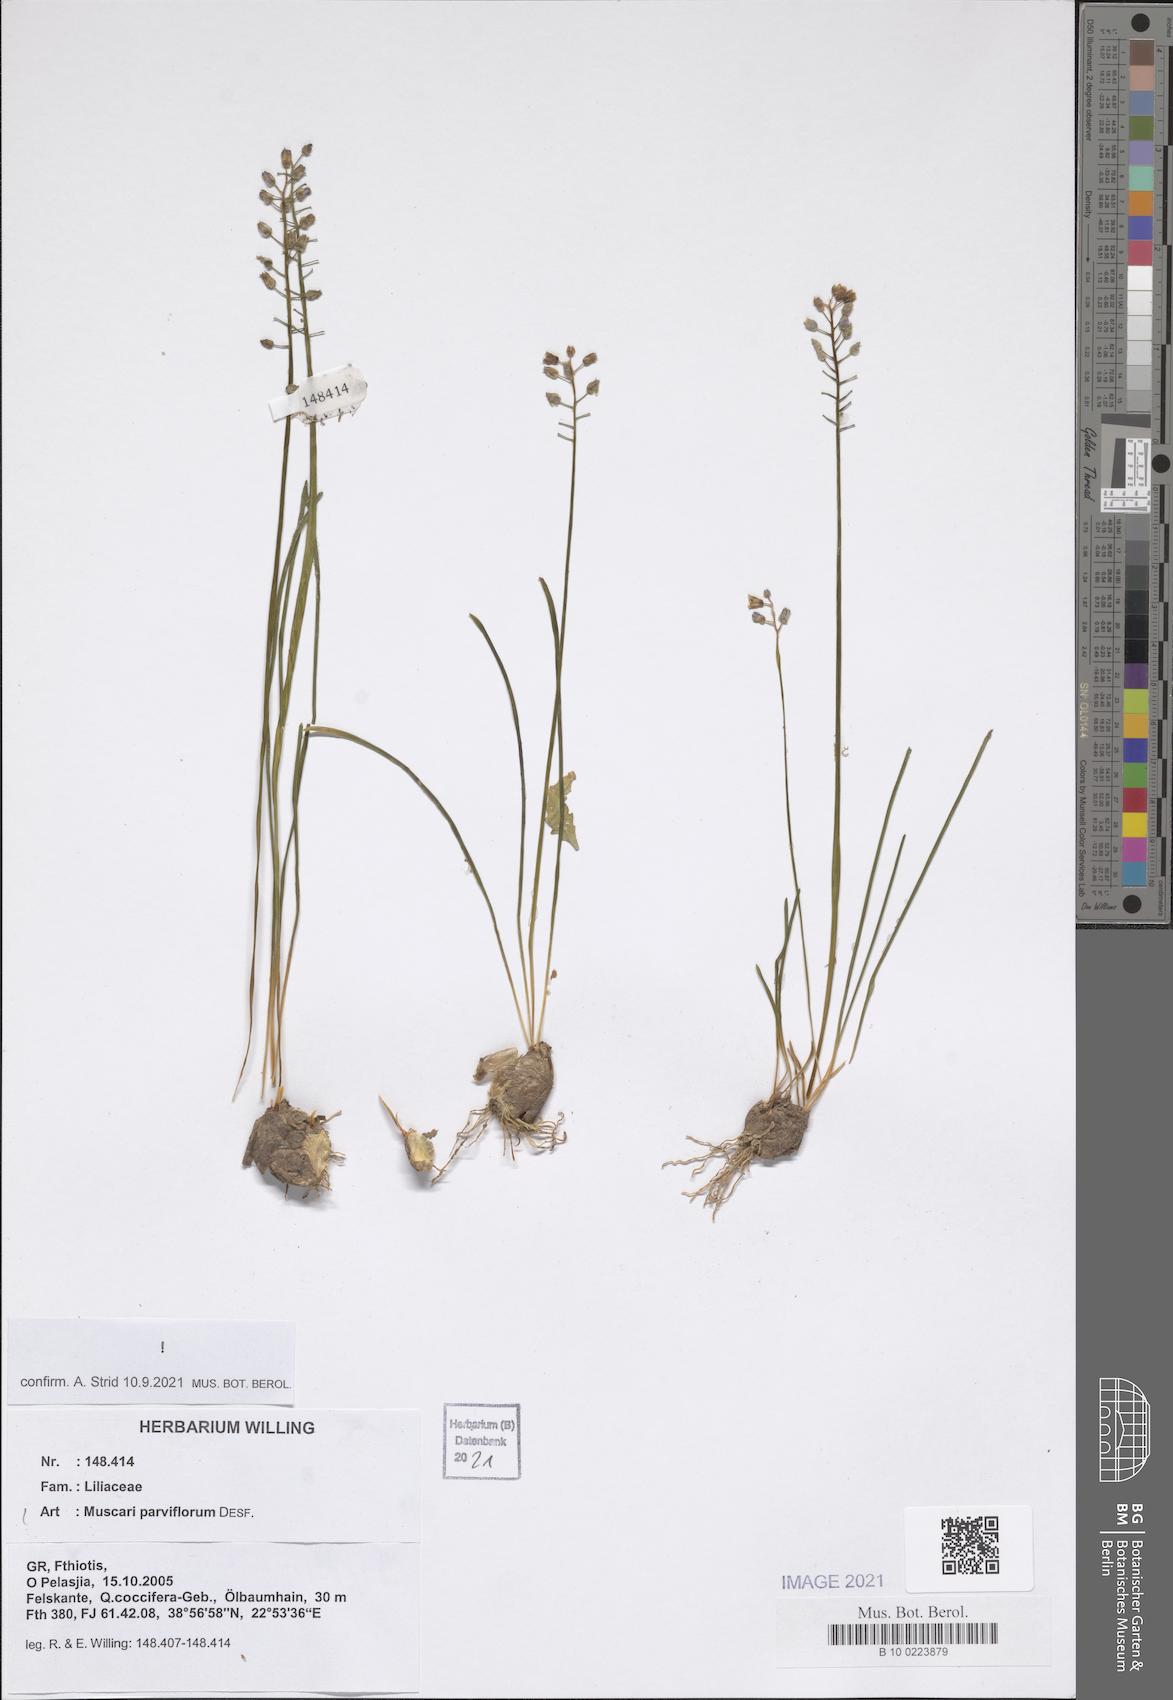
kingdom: Plantae
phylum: Tracheophyta
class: Liliopsida
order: Asparagales
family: Asparagaceae
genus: Muscari
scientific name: Muscari parviflorum
